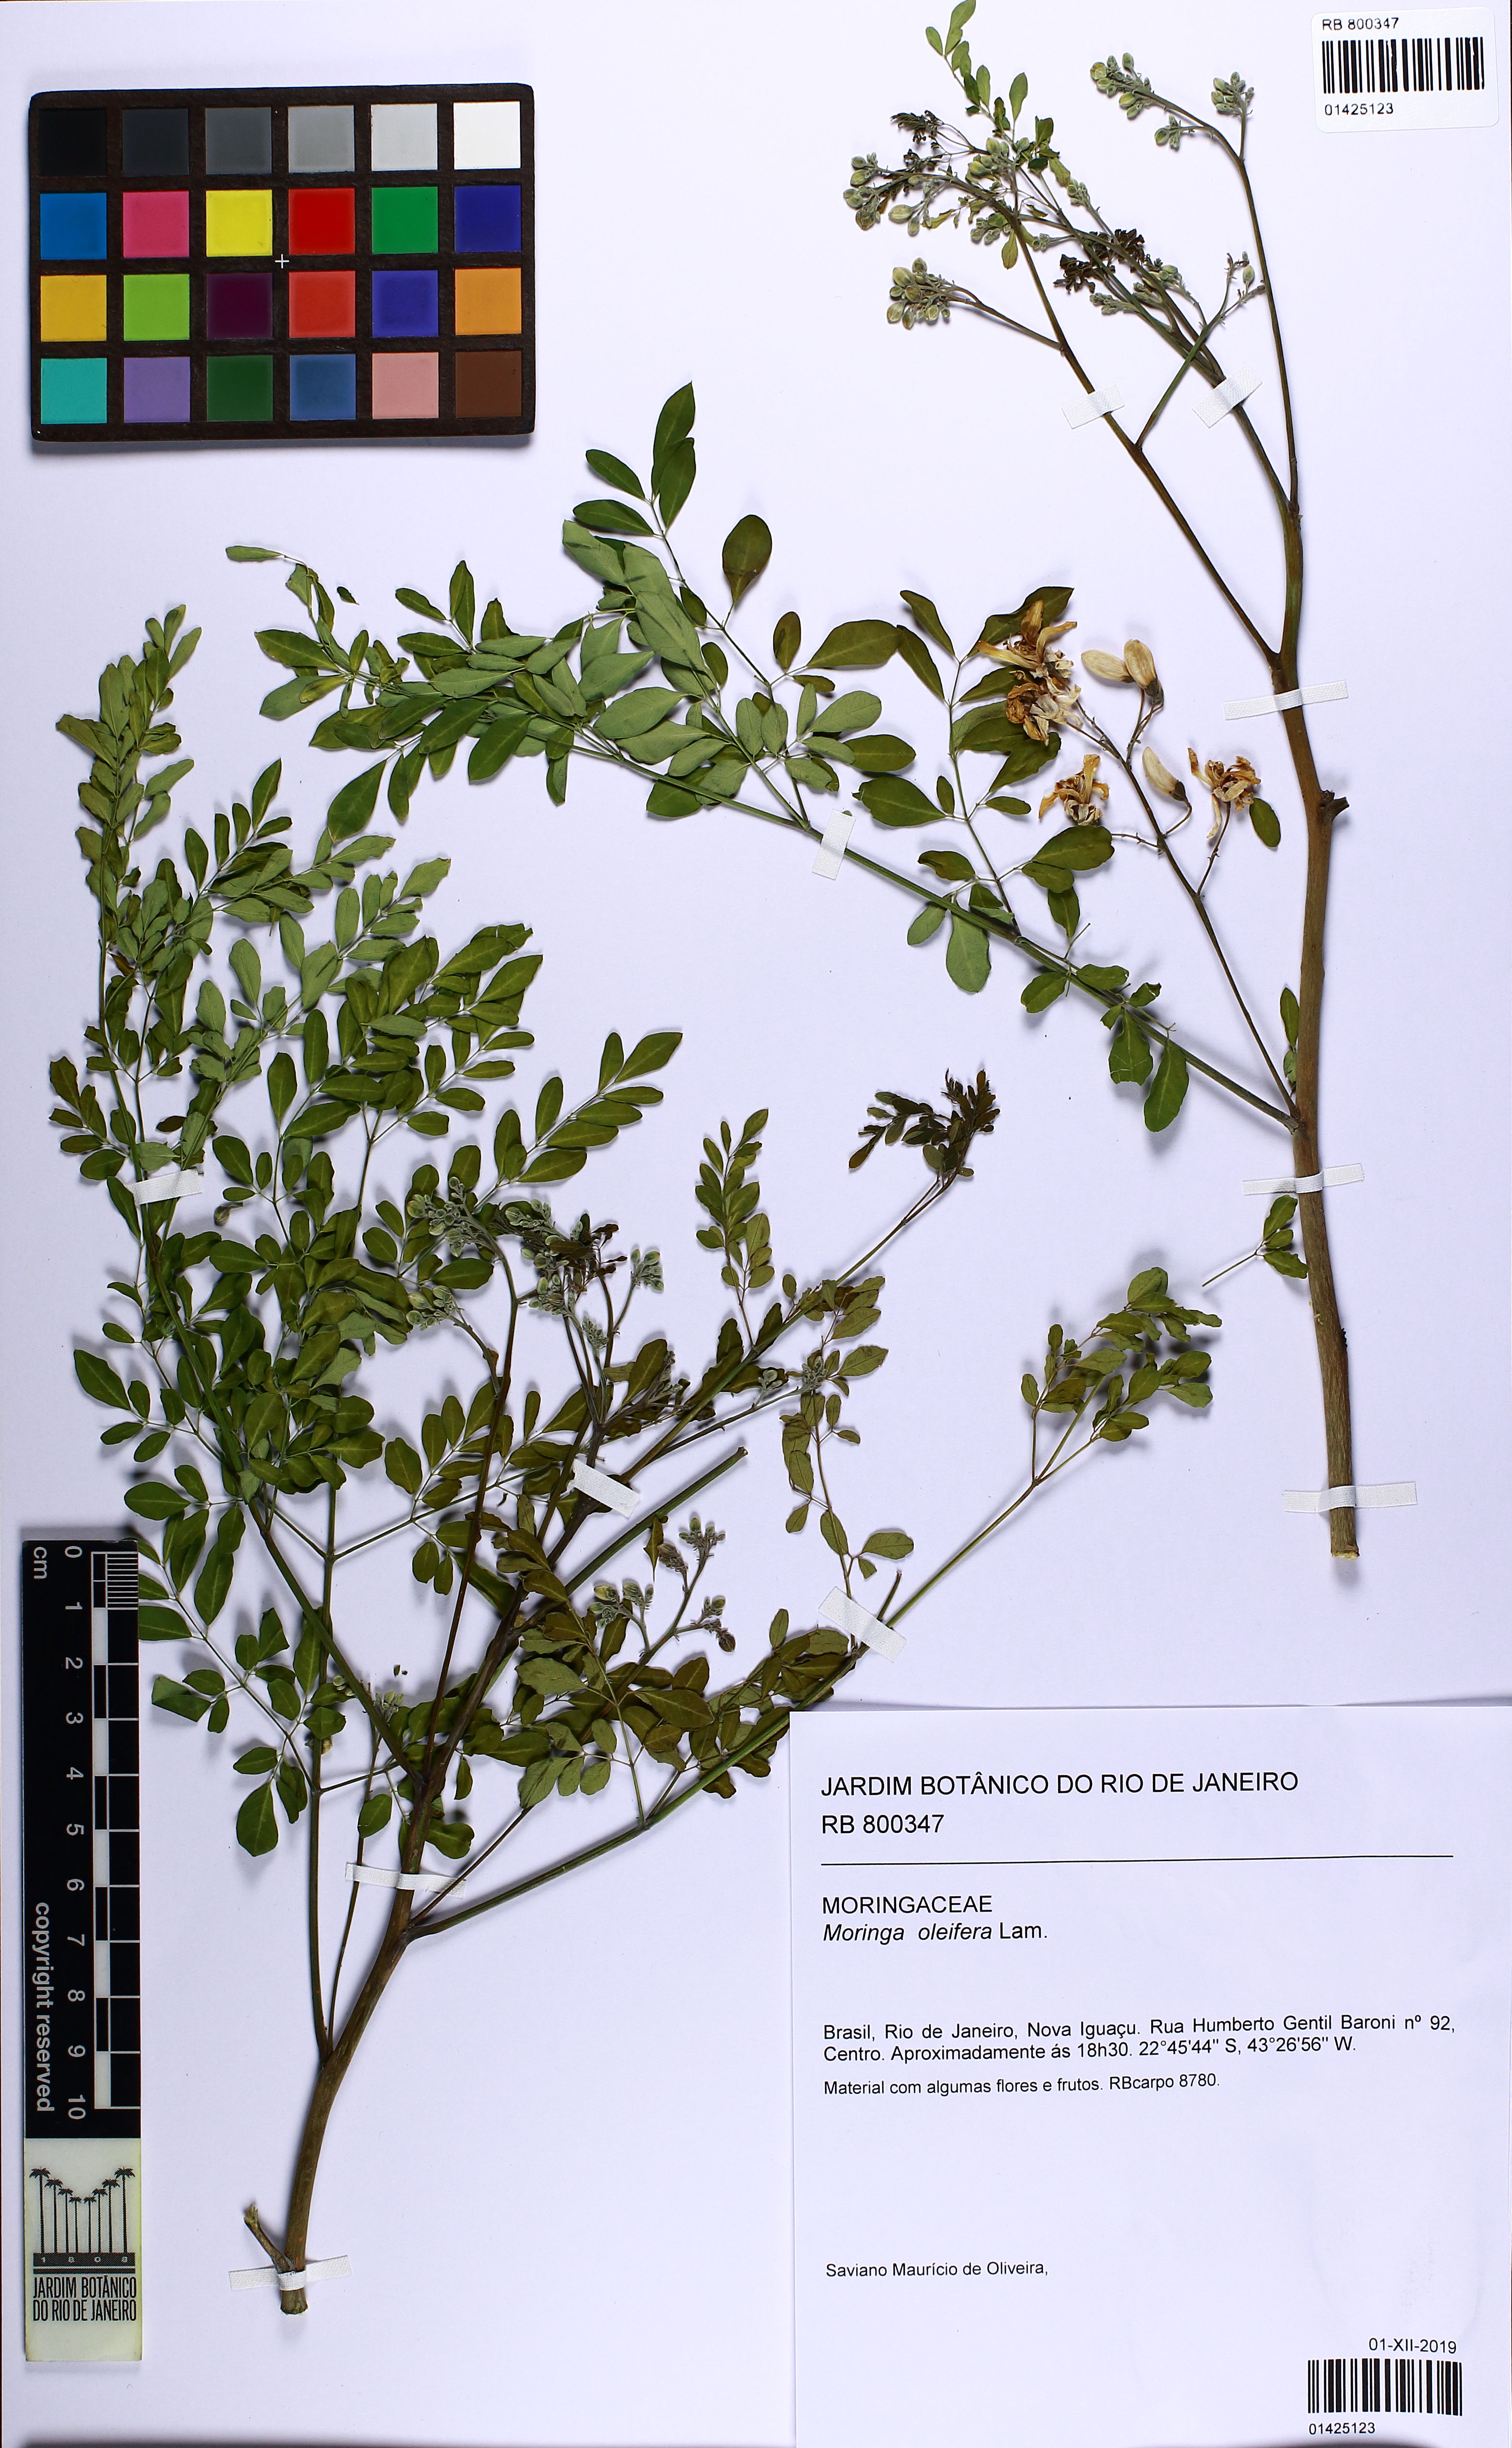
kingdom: Plantae
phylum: Tracheophyta
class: Magnoliopsida
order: Brassicales
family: Moringaceae
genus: Moringa
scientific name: Moringa oleifera
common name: Horseradish-tree
